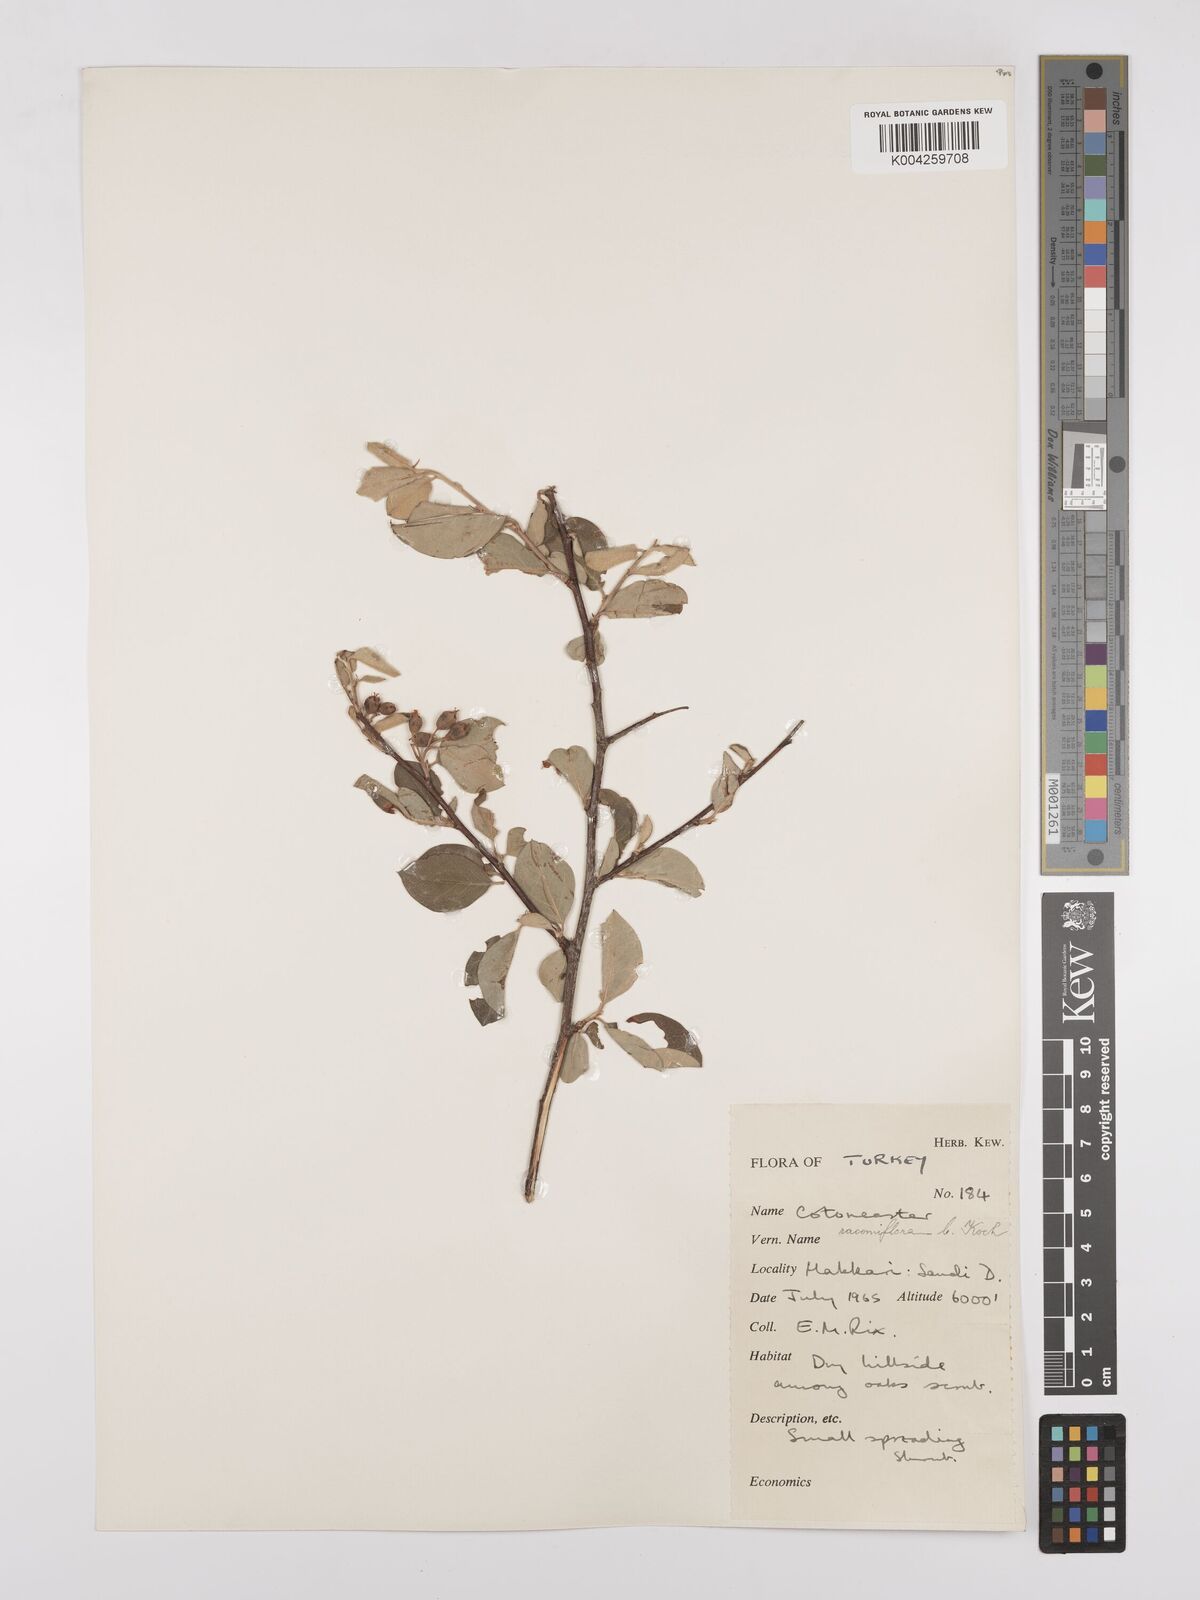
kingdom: Plantae
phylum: Tracheophyta
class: Magnoliopsida
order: Rosales
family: Rosaceae
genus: Cotoneaster
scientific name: Cotoneaster racemiflorus
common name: Cluster-flower cotoneaster
